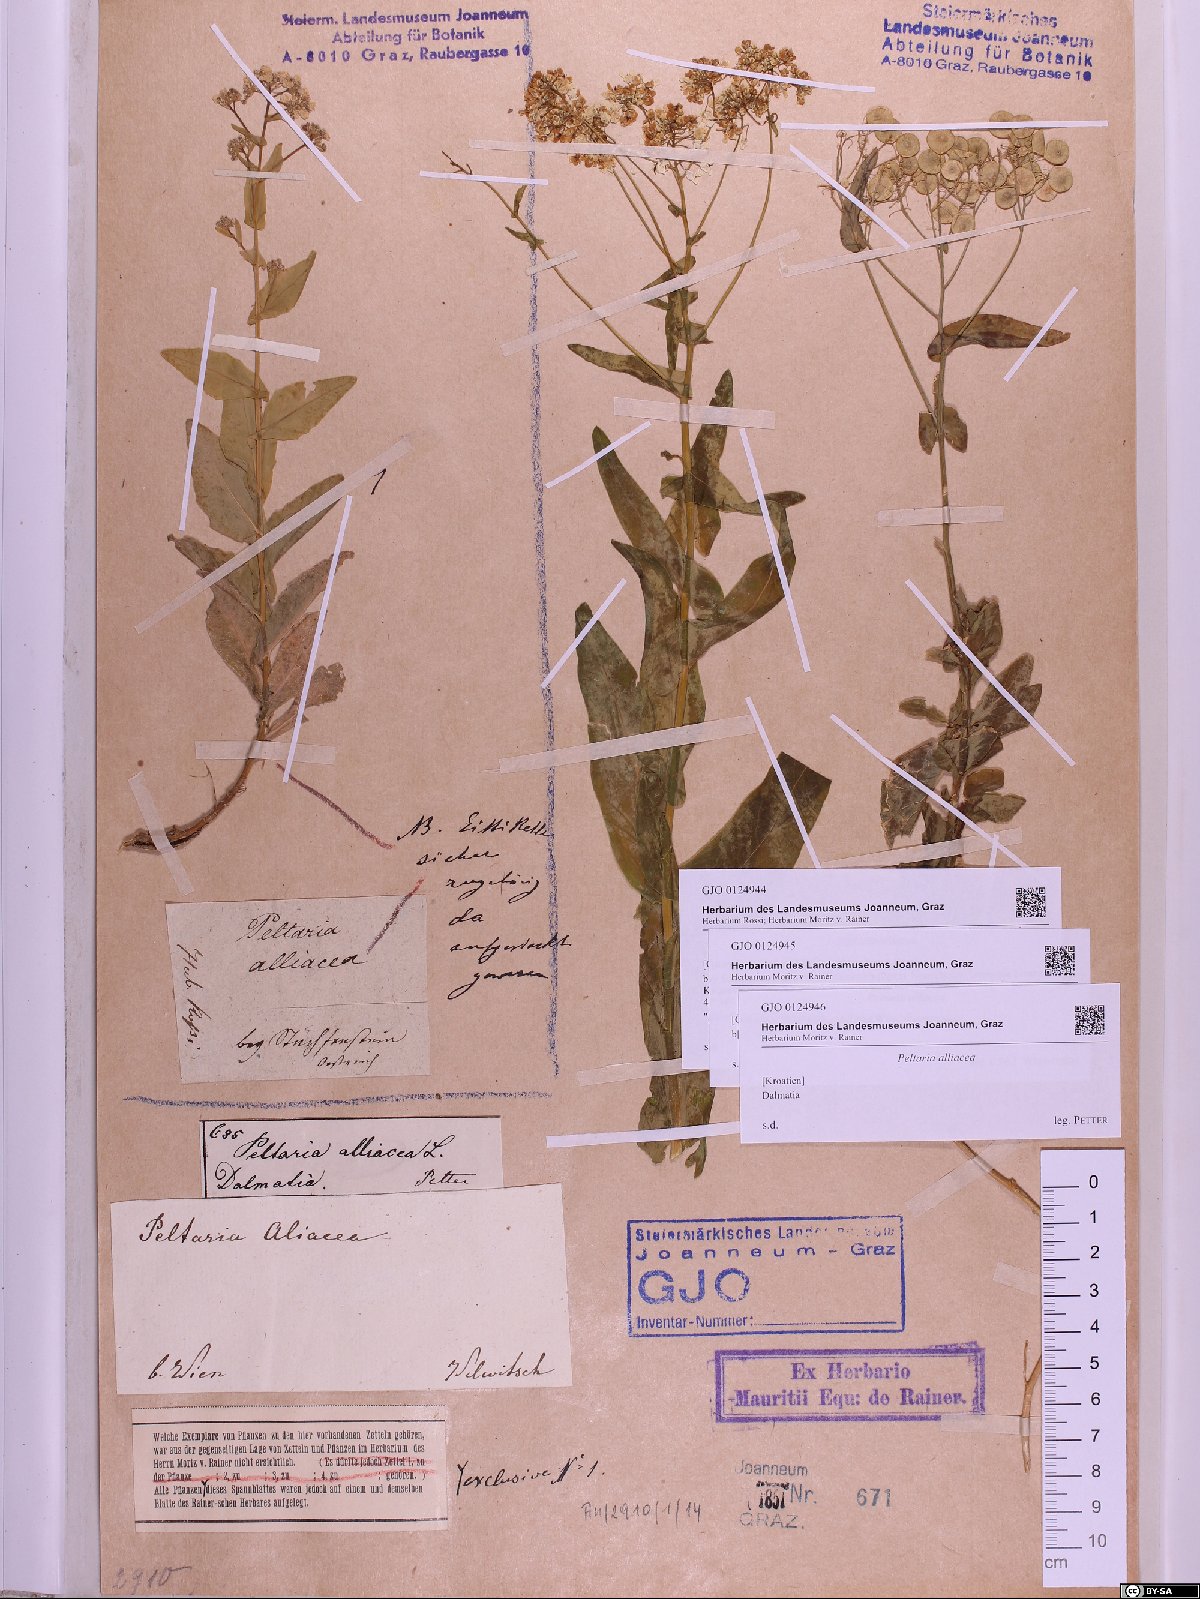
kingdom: Plantae
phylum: Tracheophyta
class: Magnoliopsida
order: Brassicales
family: Brassicaceae
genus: Peltaria
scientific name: Peltaria alliacea
